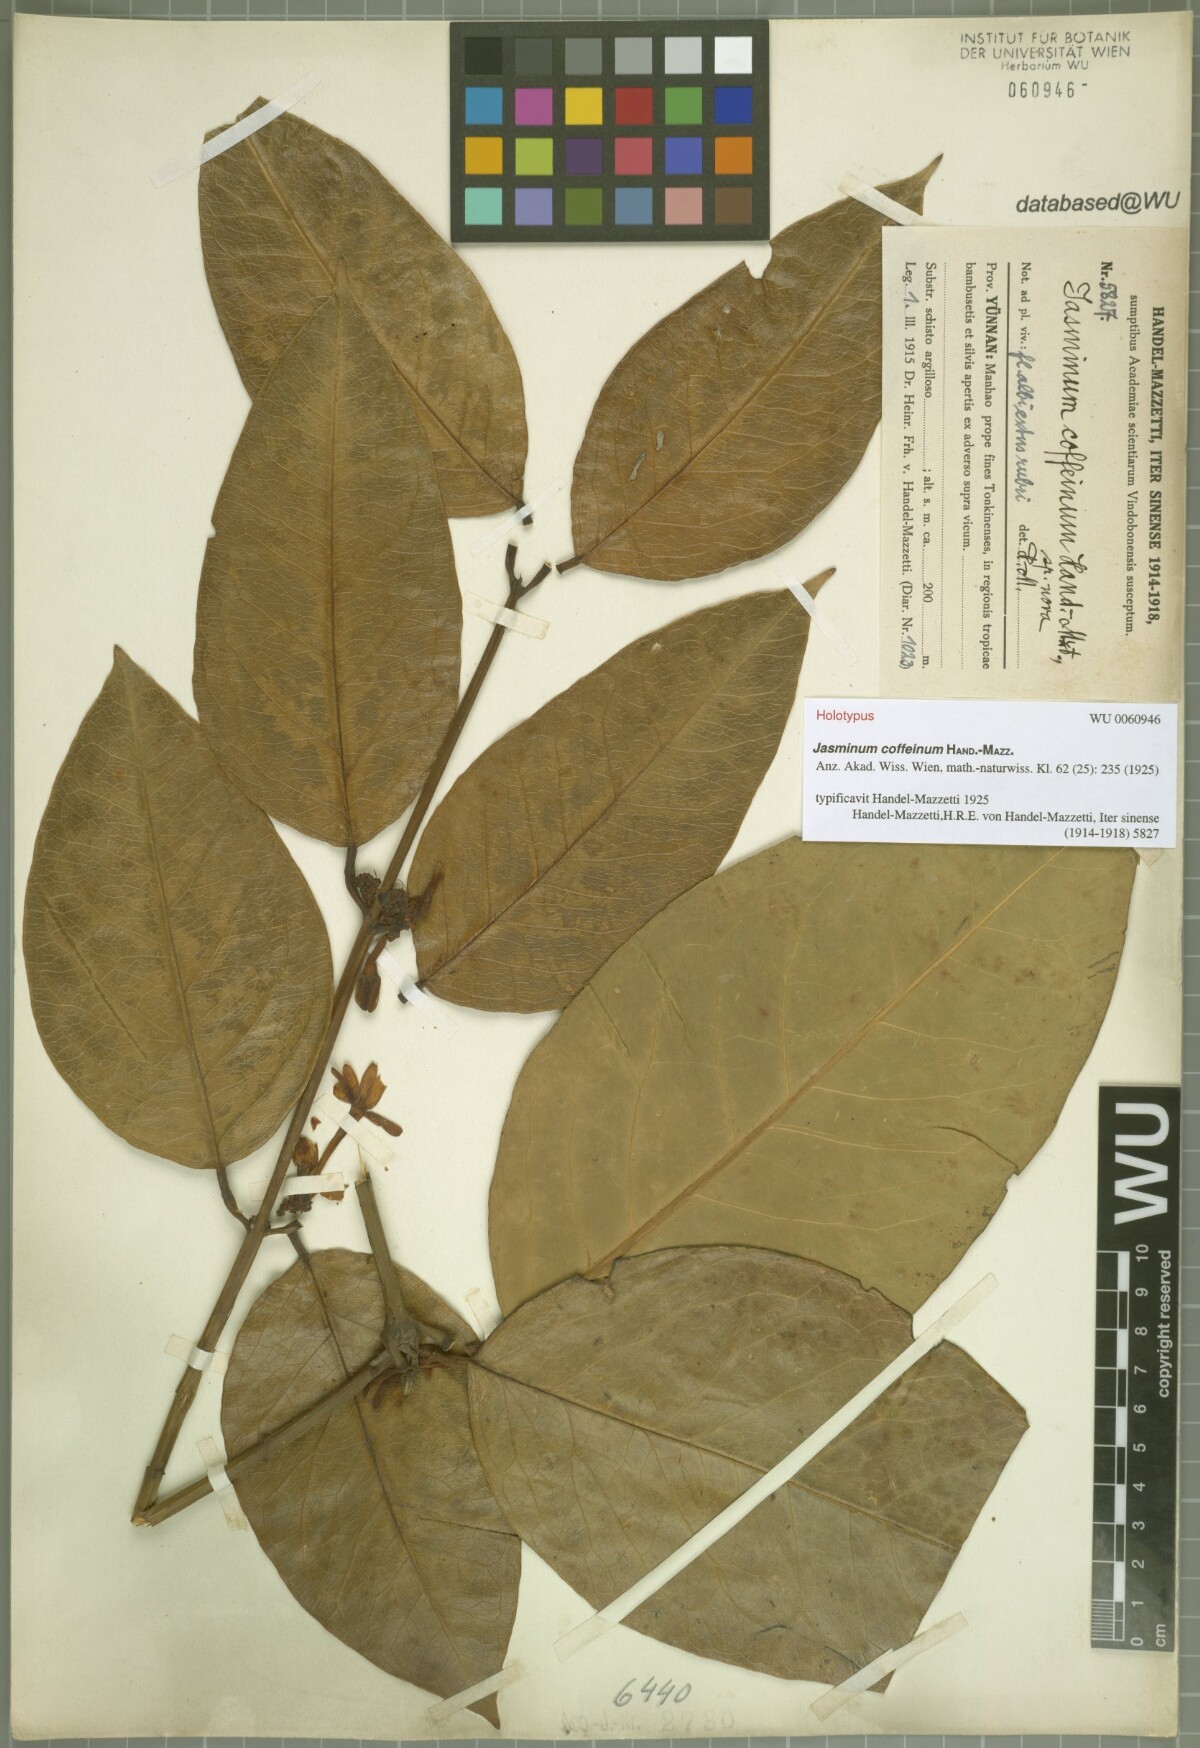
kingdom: Plantae
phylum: Tracheophyta
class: Magnoliopsida
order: Lamiales
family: Oleaceae
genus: Jasminum
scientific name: Jasminum coffeinum
